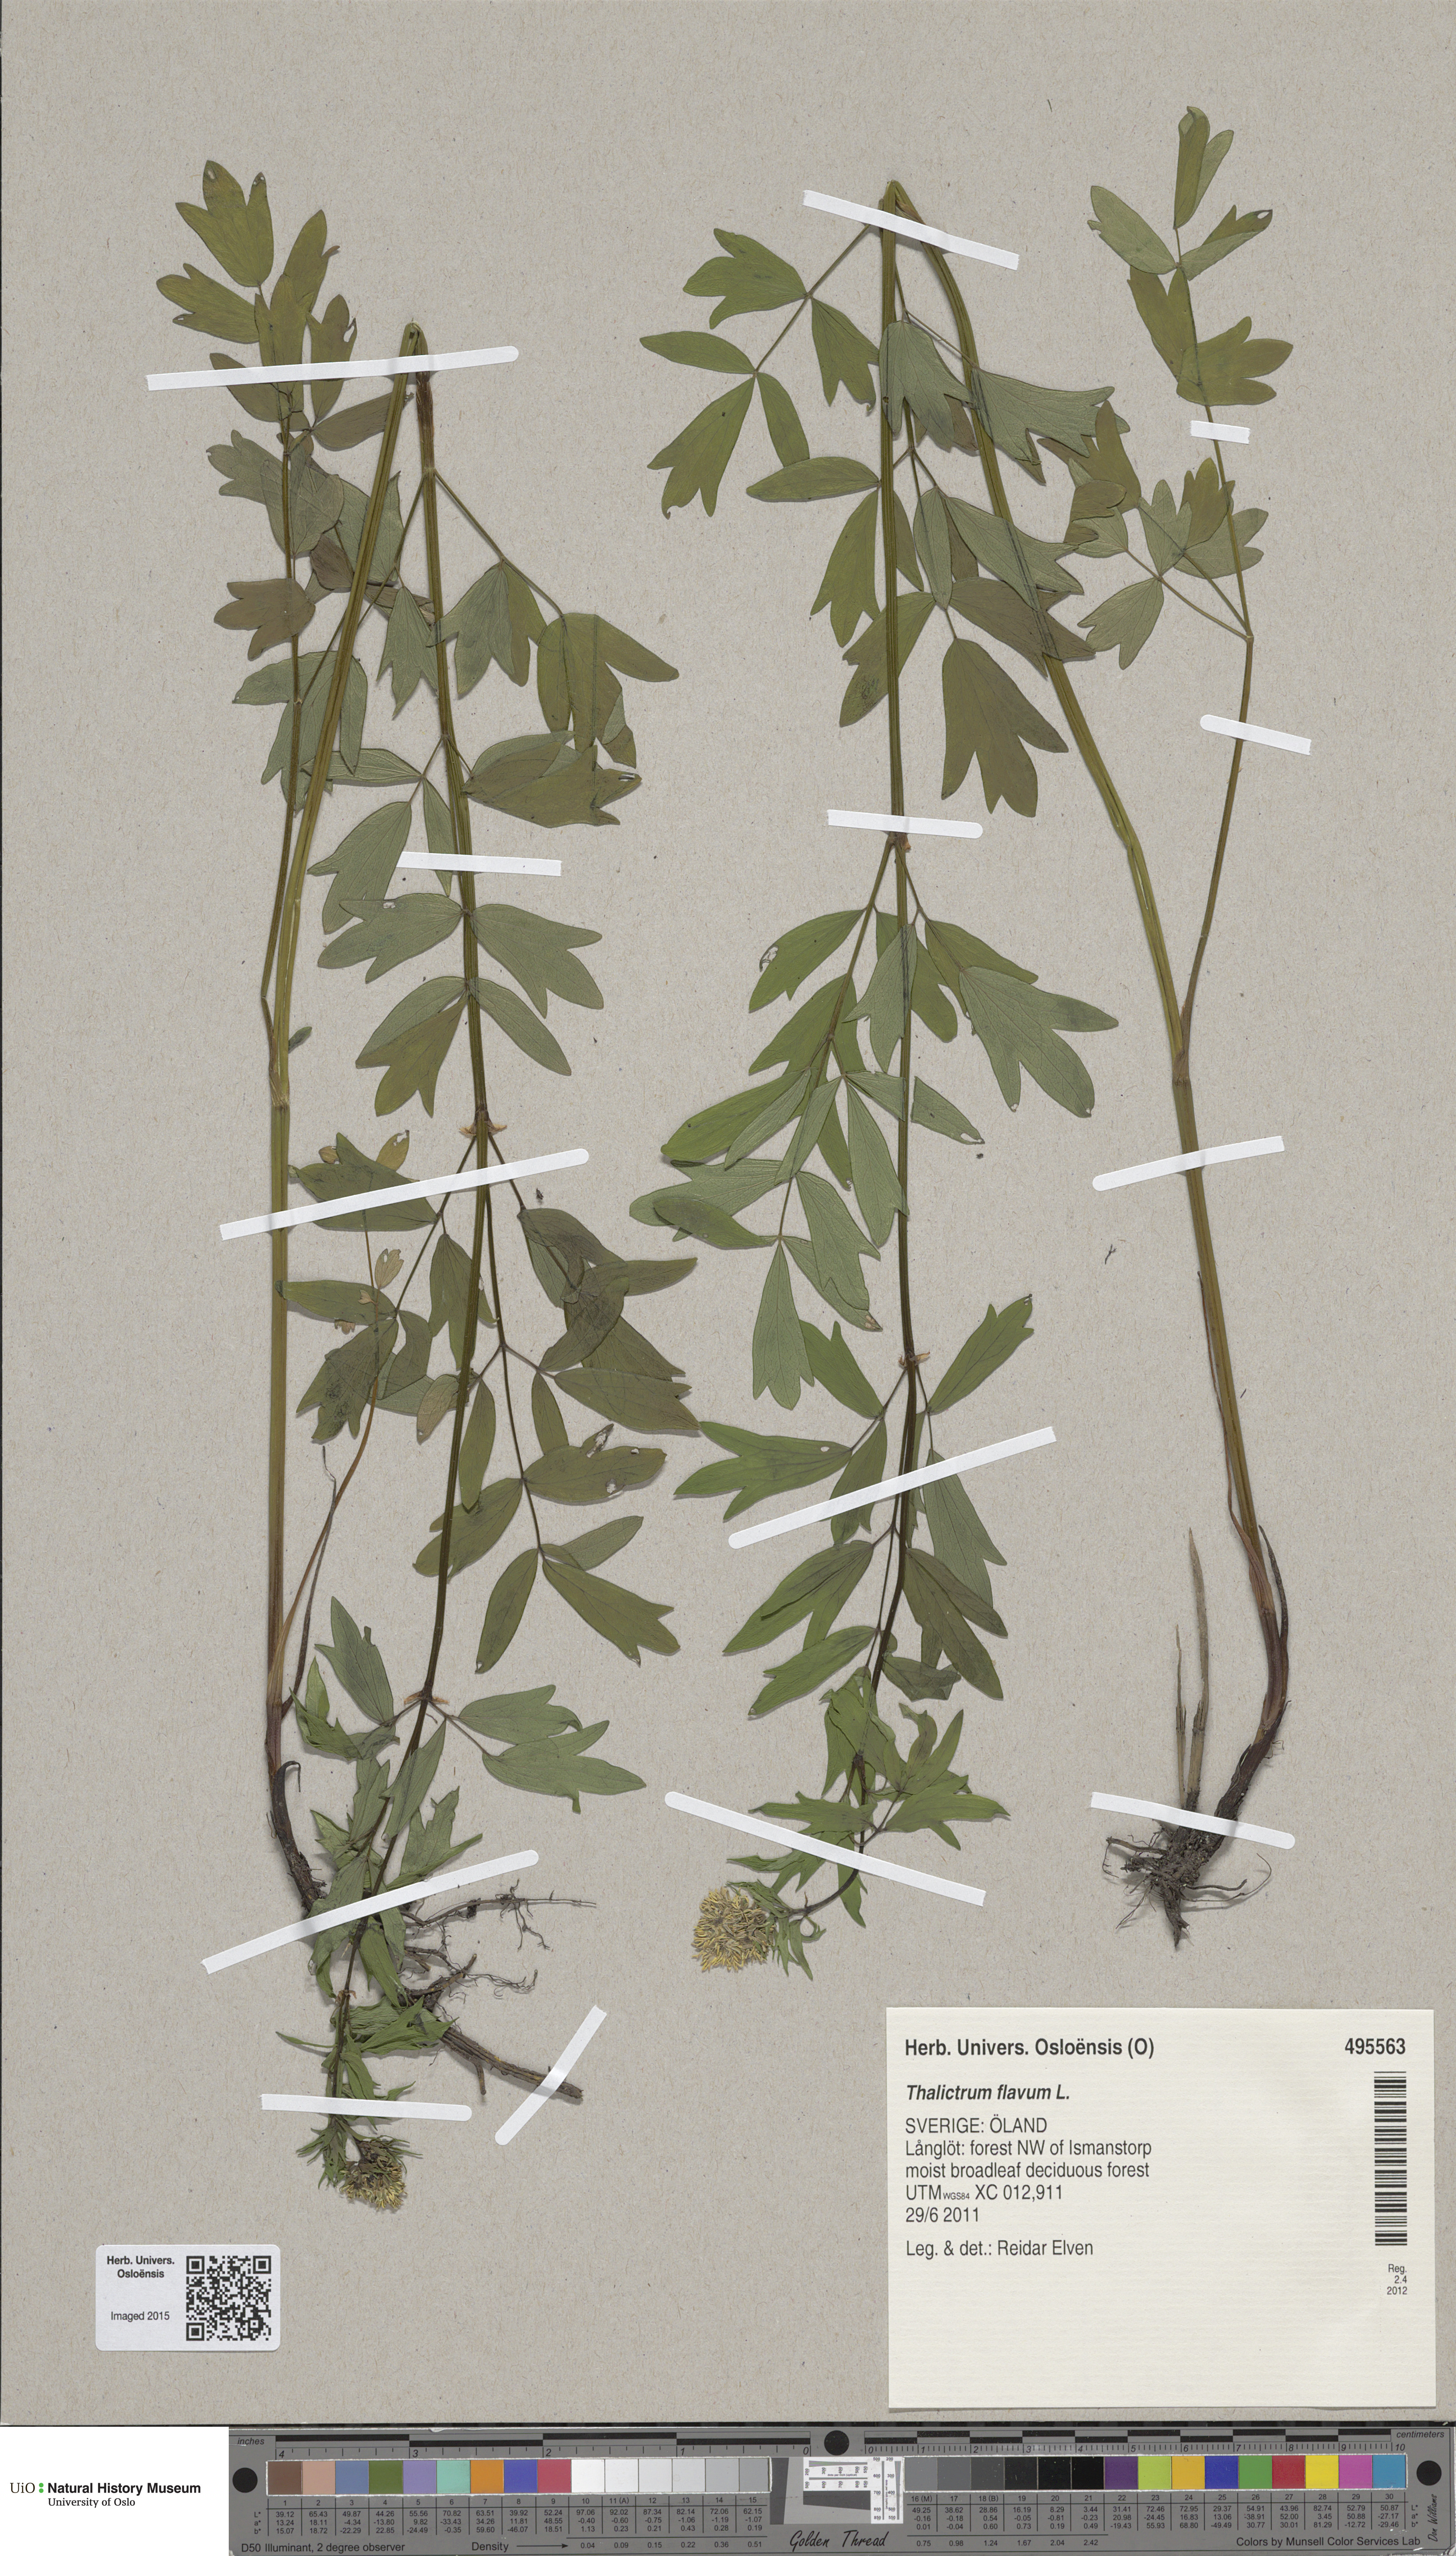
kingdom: Plantae
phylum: Tracheophyta
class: Magnoliopsida
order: Ranunculales
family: Ranunculaceae
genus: Thalictrum
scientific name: Thalictrum flavum
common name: Common meadow-rue
